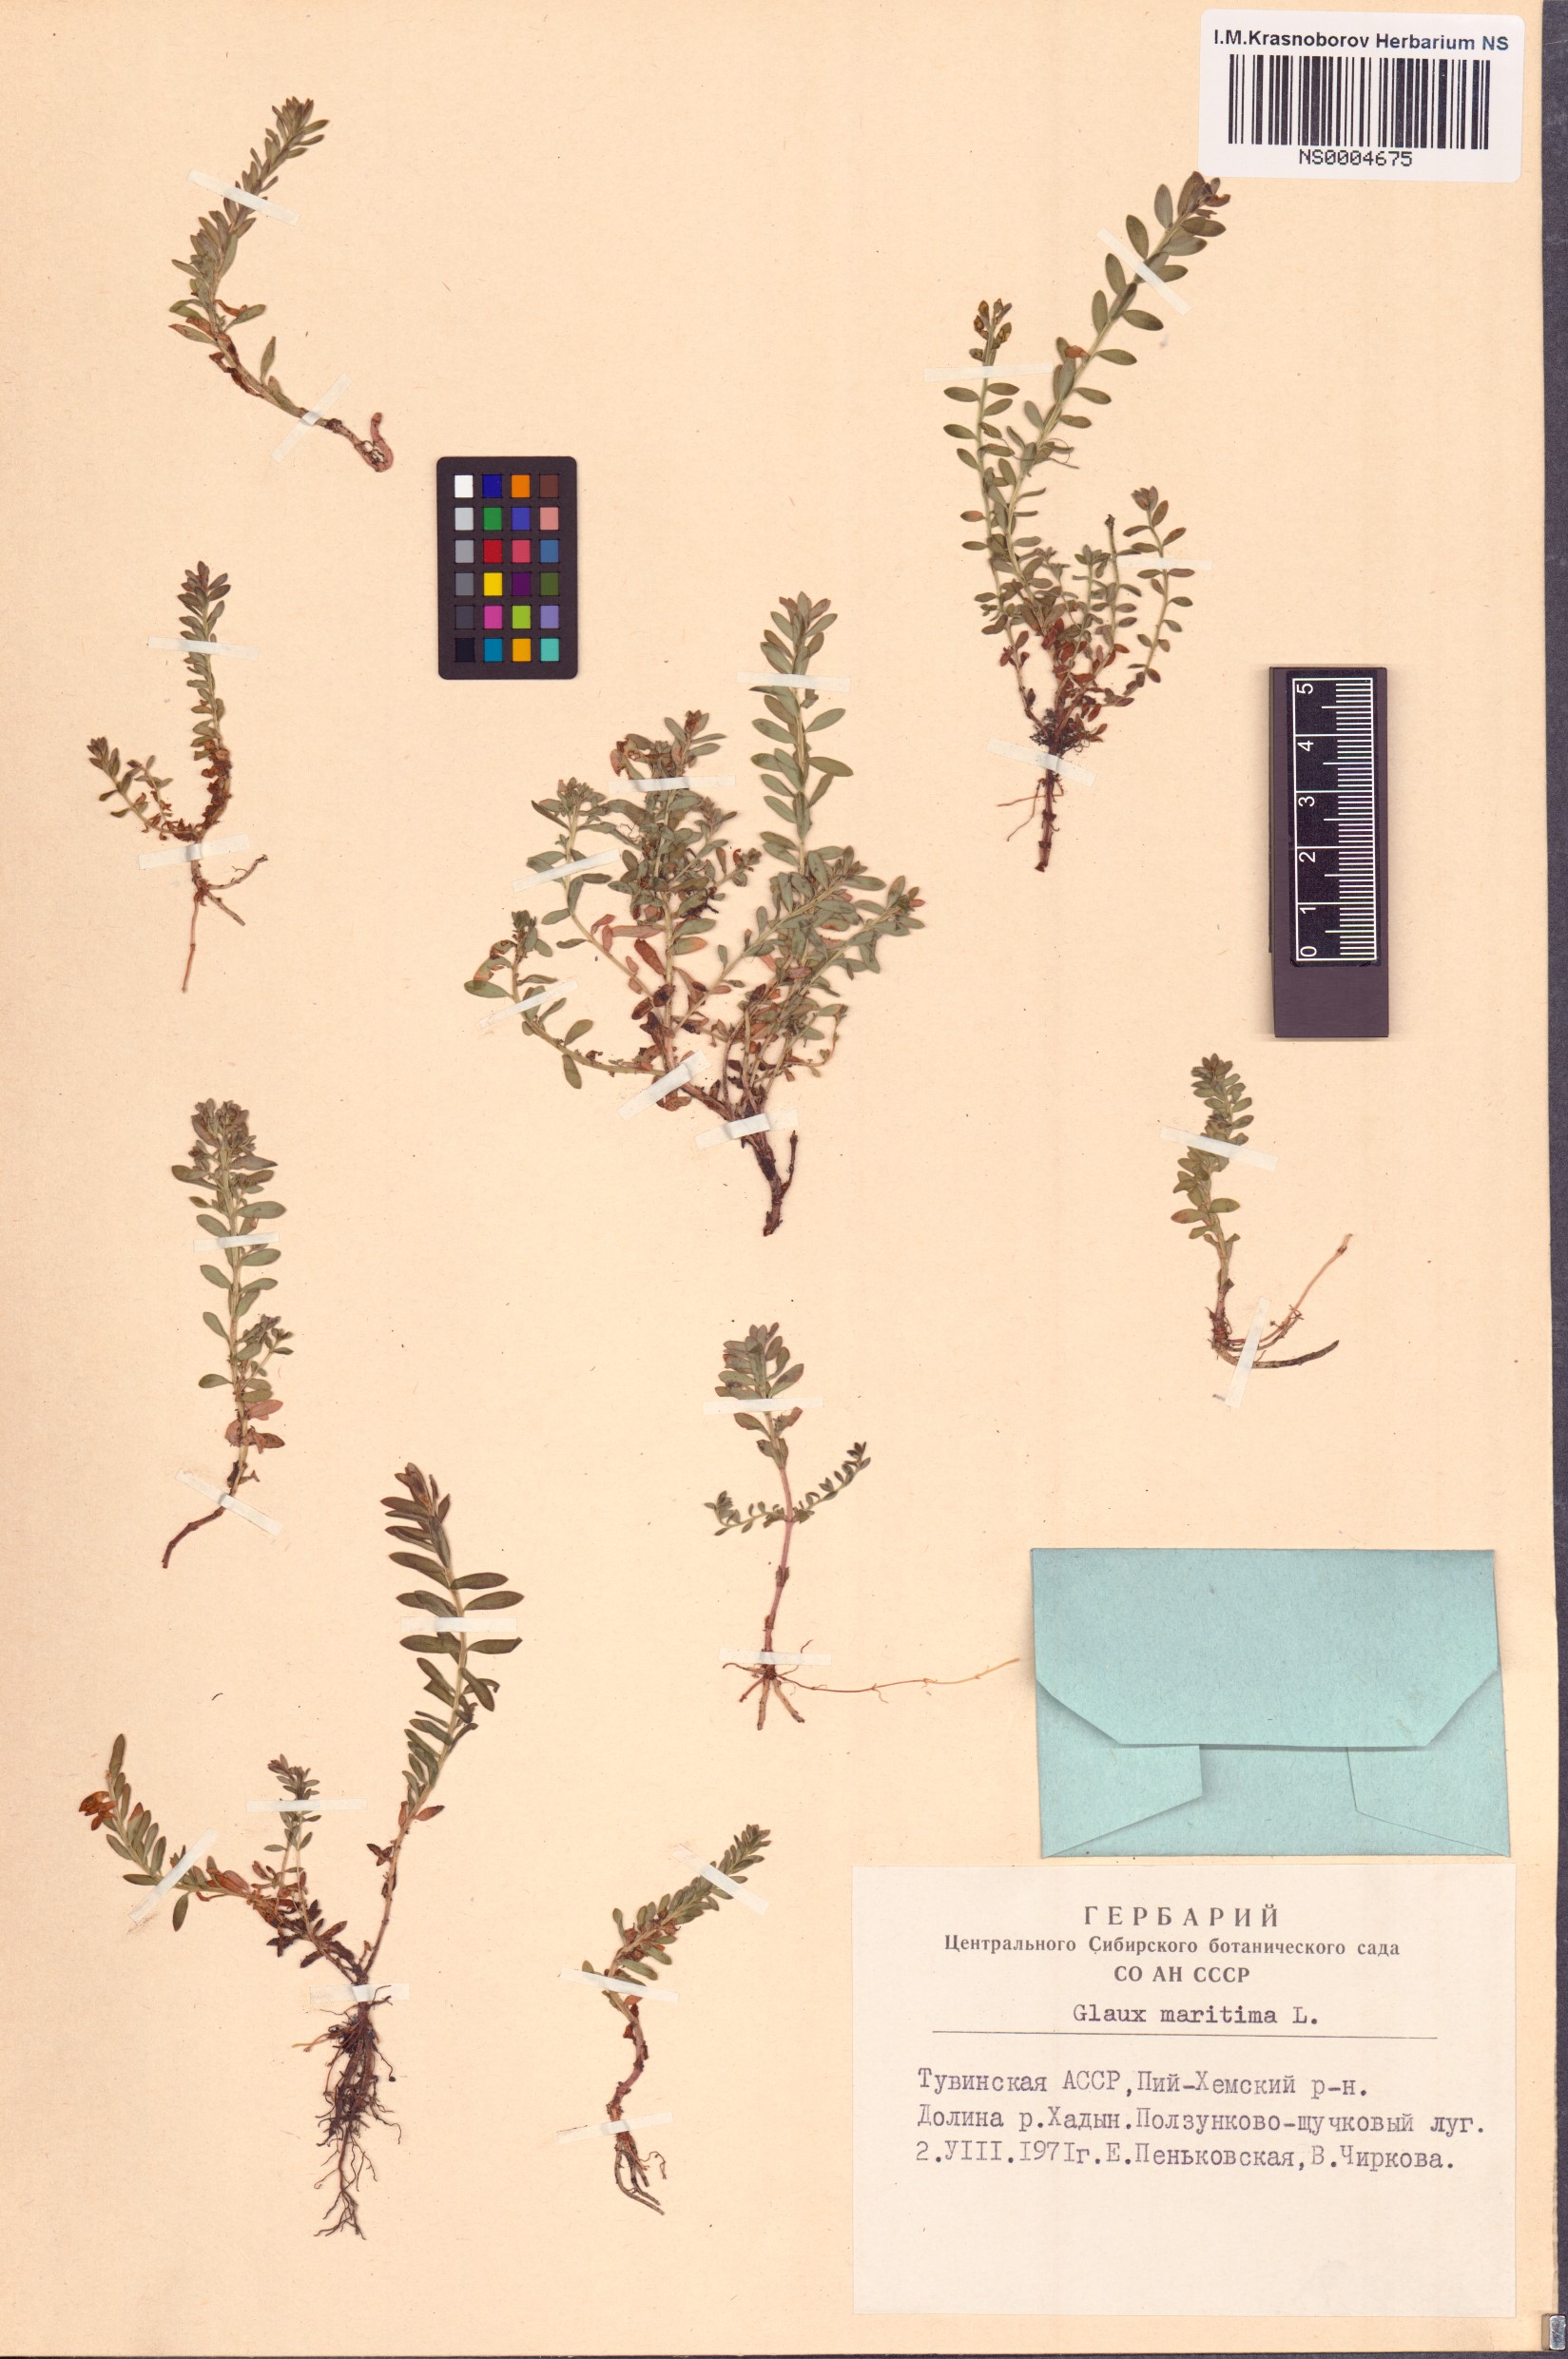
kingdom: Plantae
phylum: Tracheophyta
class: Magnoliopsida
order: Ericales
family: Primulaceae
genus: Lysimachia
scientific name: Lysimachia maritima
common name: Sea milkwort
